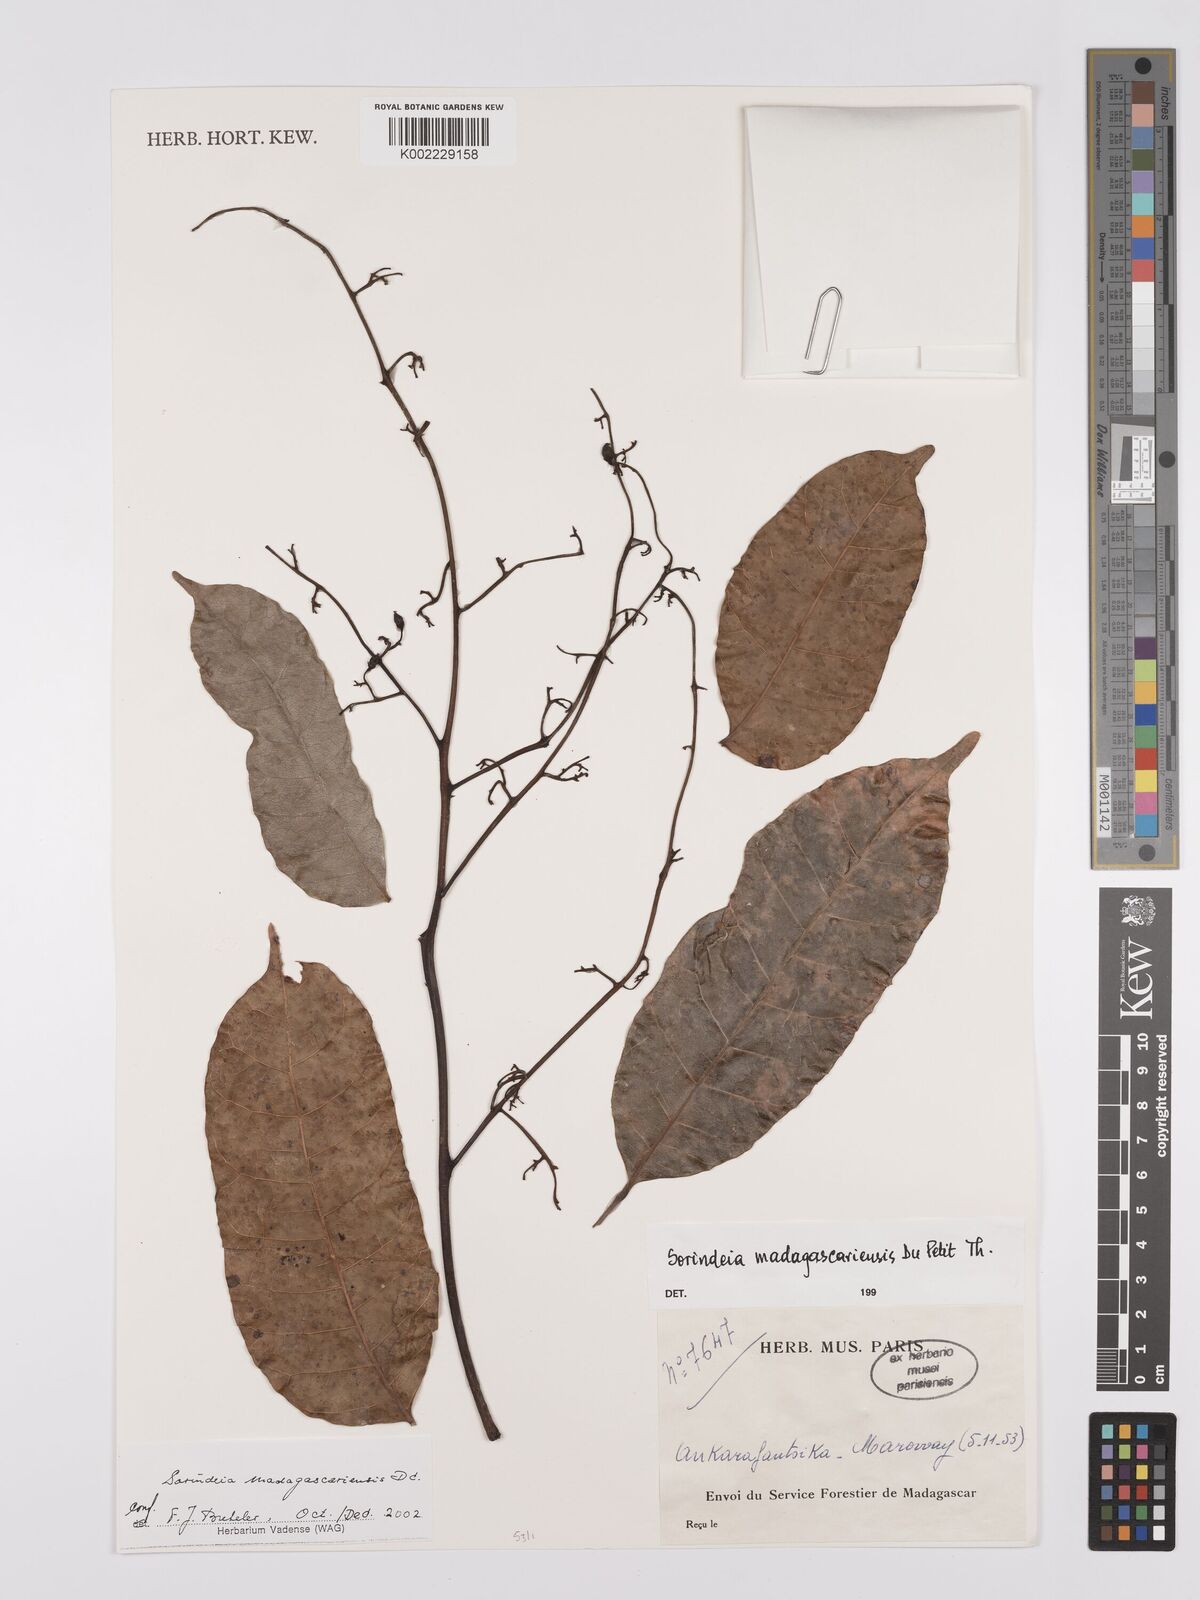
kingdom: Plantae
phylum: Tracheophyta
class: Magnoliopsida
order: Sapindales
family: Anacardiaceae
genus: Sorindeia
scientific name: Sorindeia madagascariensis
